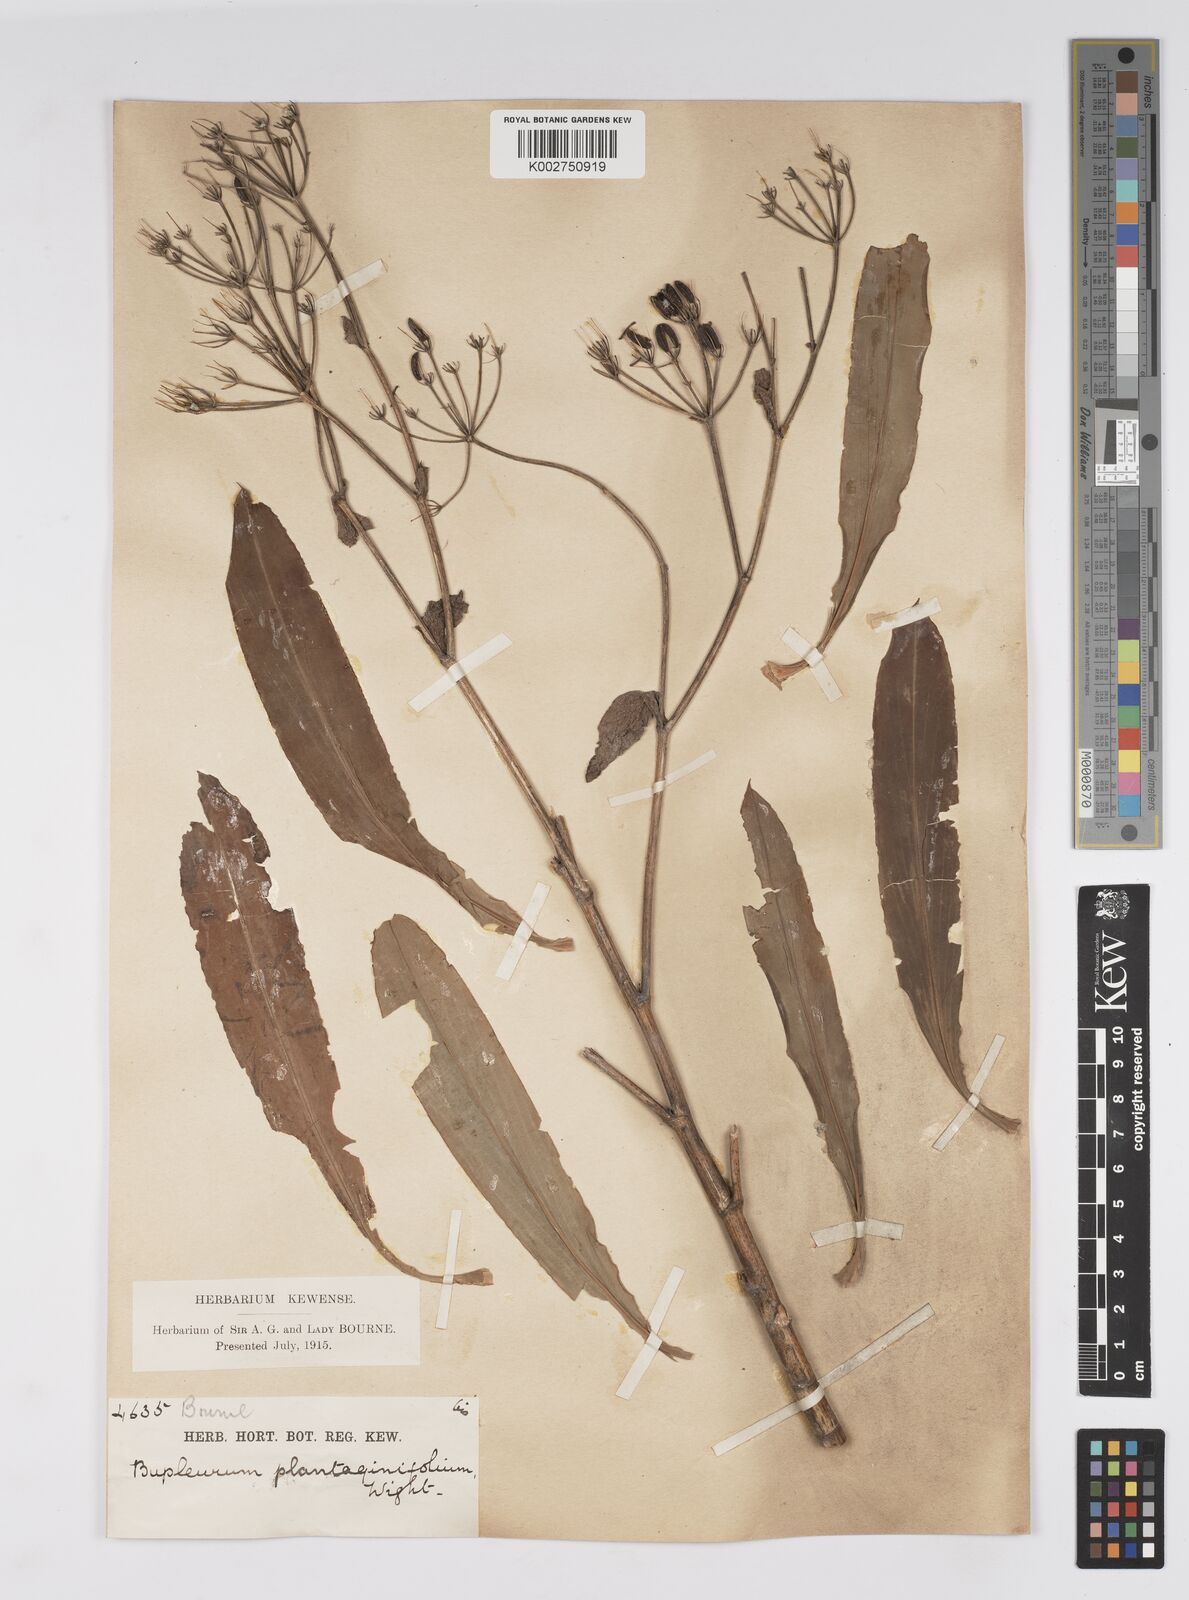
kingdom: Plantae
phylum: Tracheophyta
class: Magnoliopsida
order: Apiales
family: Apiaceae
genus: Bupleurum
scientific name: Bupleurum plantaginifolium
